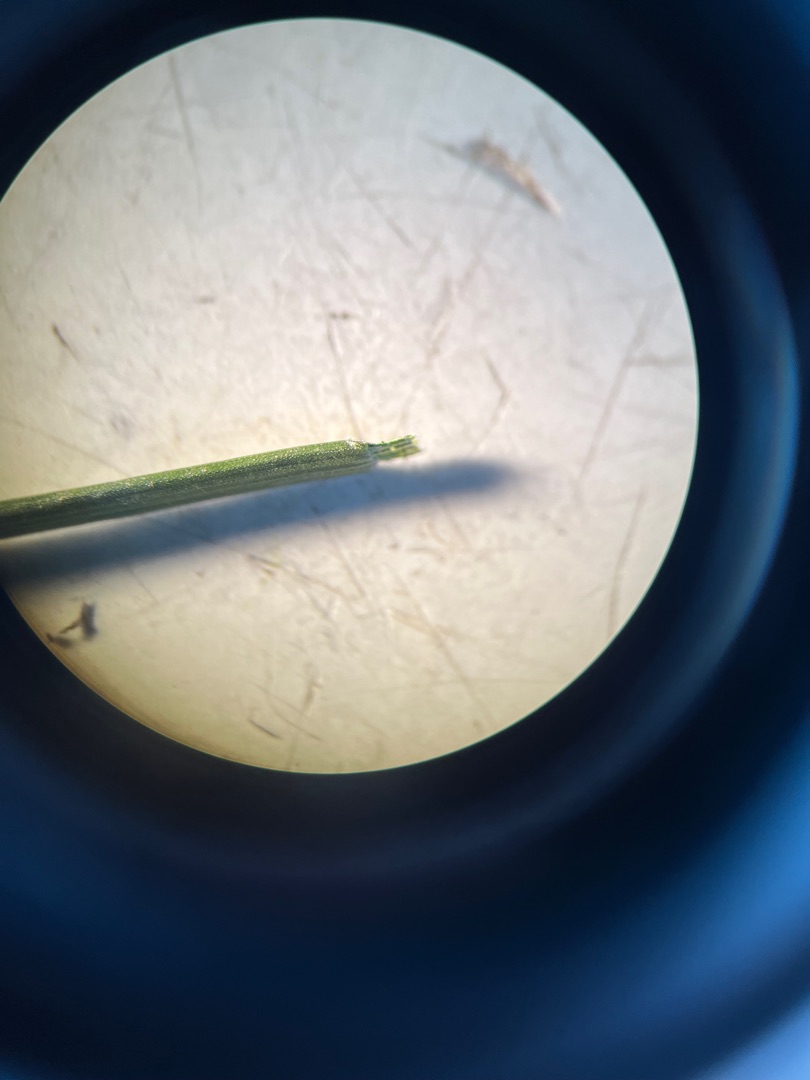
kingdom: Plantae
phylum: Tracheophyta
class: Liliopsida
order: Poales
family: Poaceae
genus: Poa
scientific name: Poa compressa
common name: Fladstrået rapgræs
